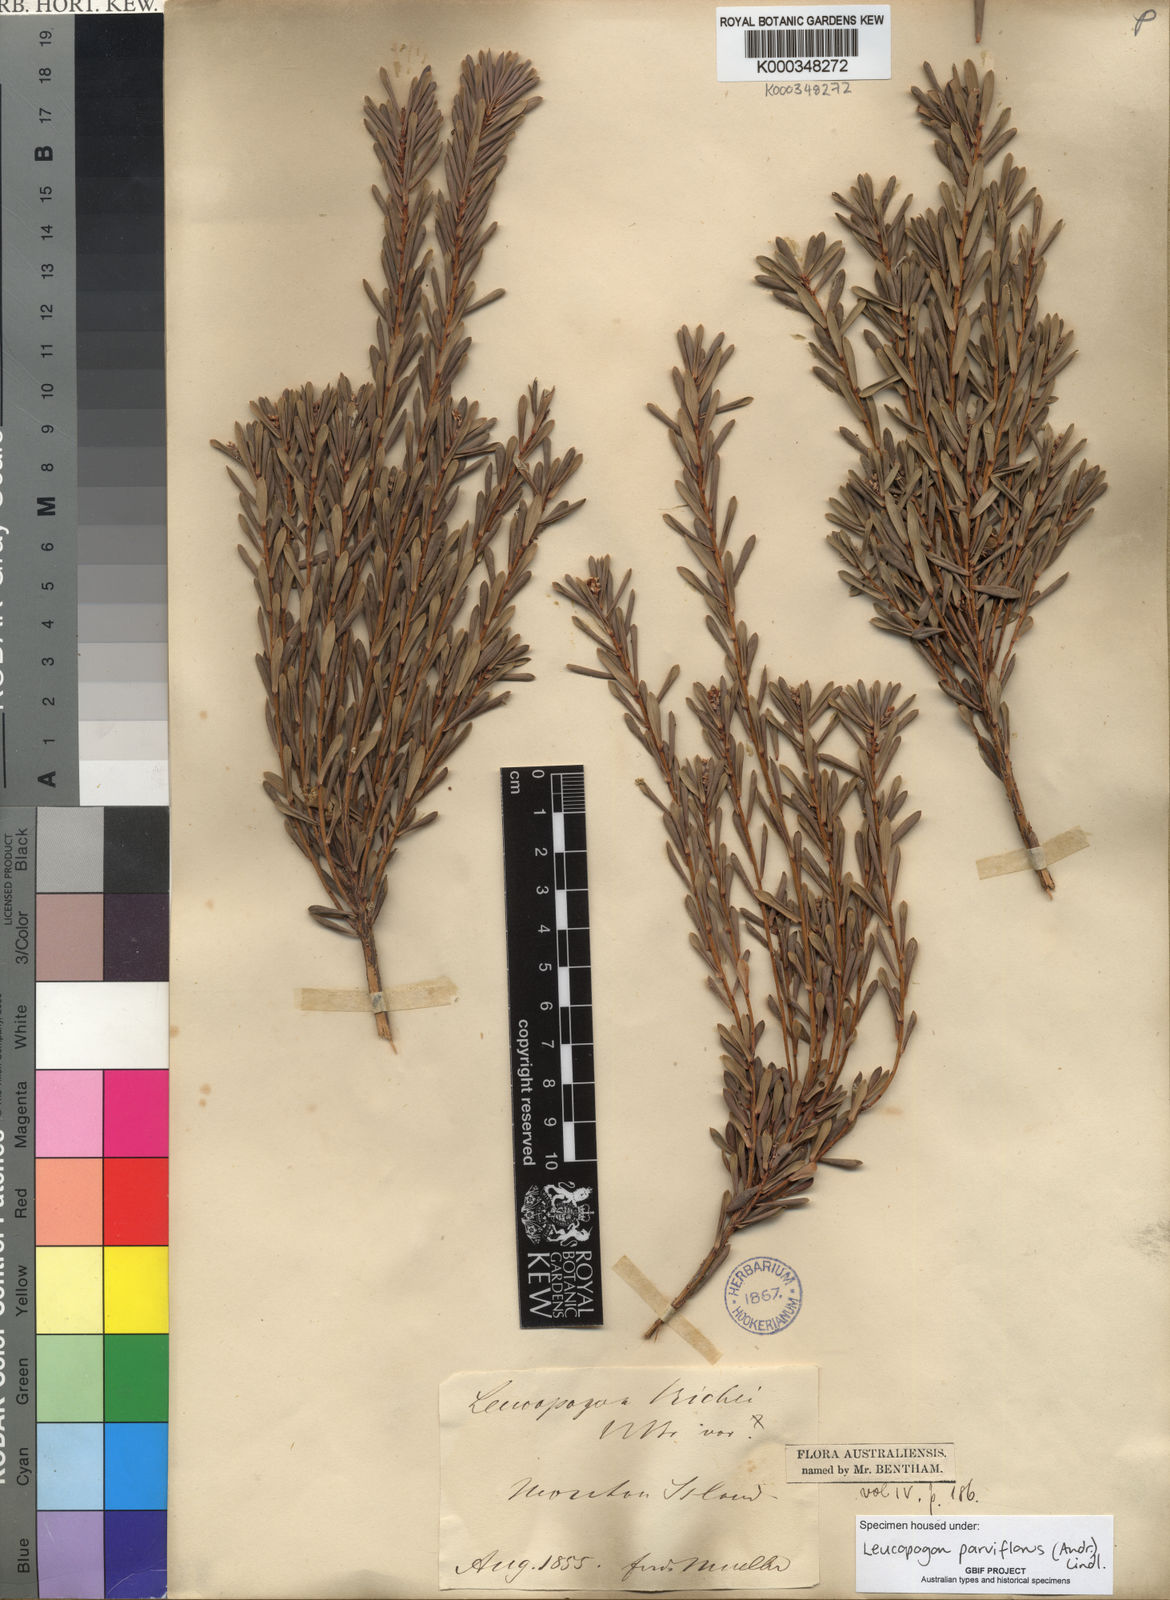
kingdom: Plantae
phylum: Tracheophyta
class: Magnoliopsida
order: Ericales
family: Ericaceae
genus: Leptecophylla
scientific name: Leptecophylla parvifolia
